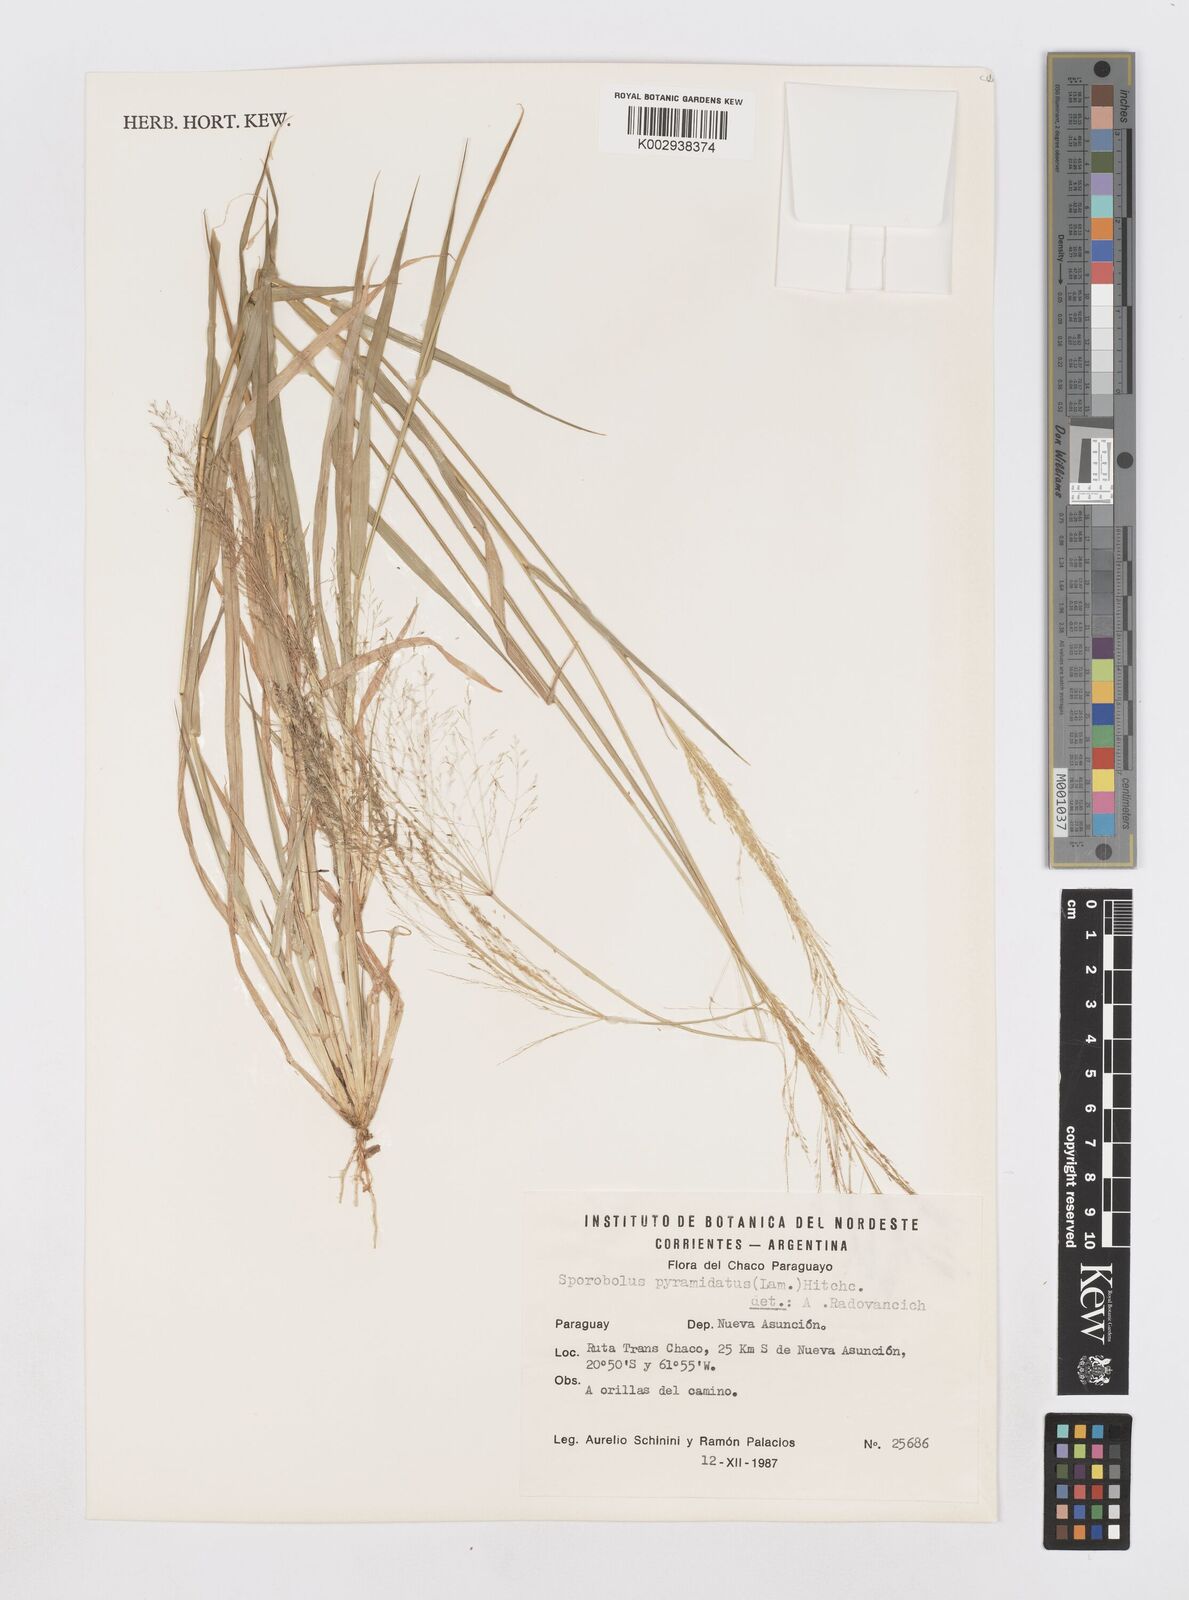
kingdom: Plantae
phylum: Tracheophyta
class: Liliopsida
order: Poales
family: Poaceae
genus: Sporobolus
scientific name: Sporobolus pyramidatus
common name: Whorled dropseed
